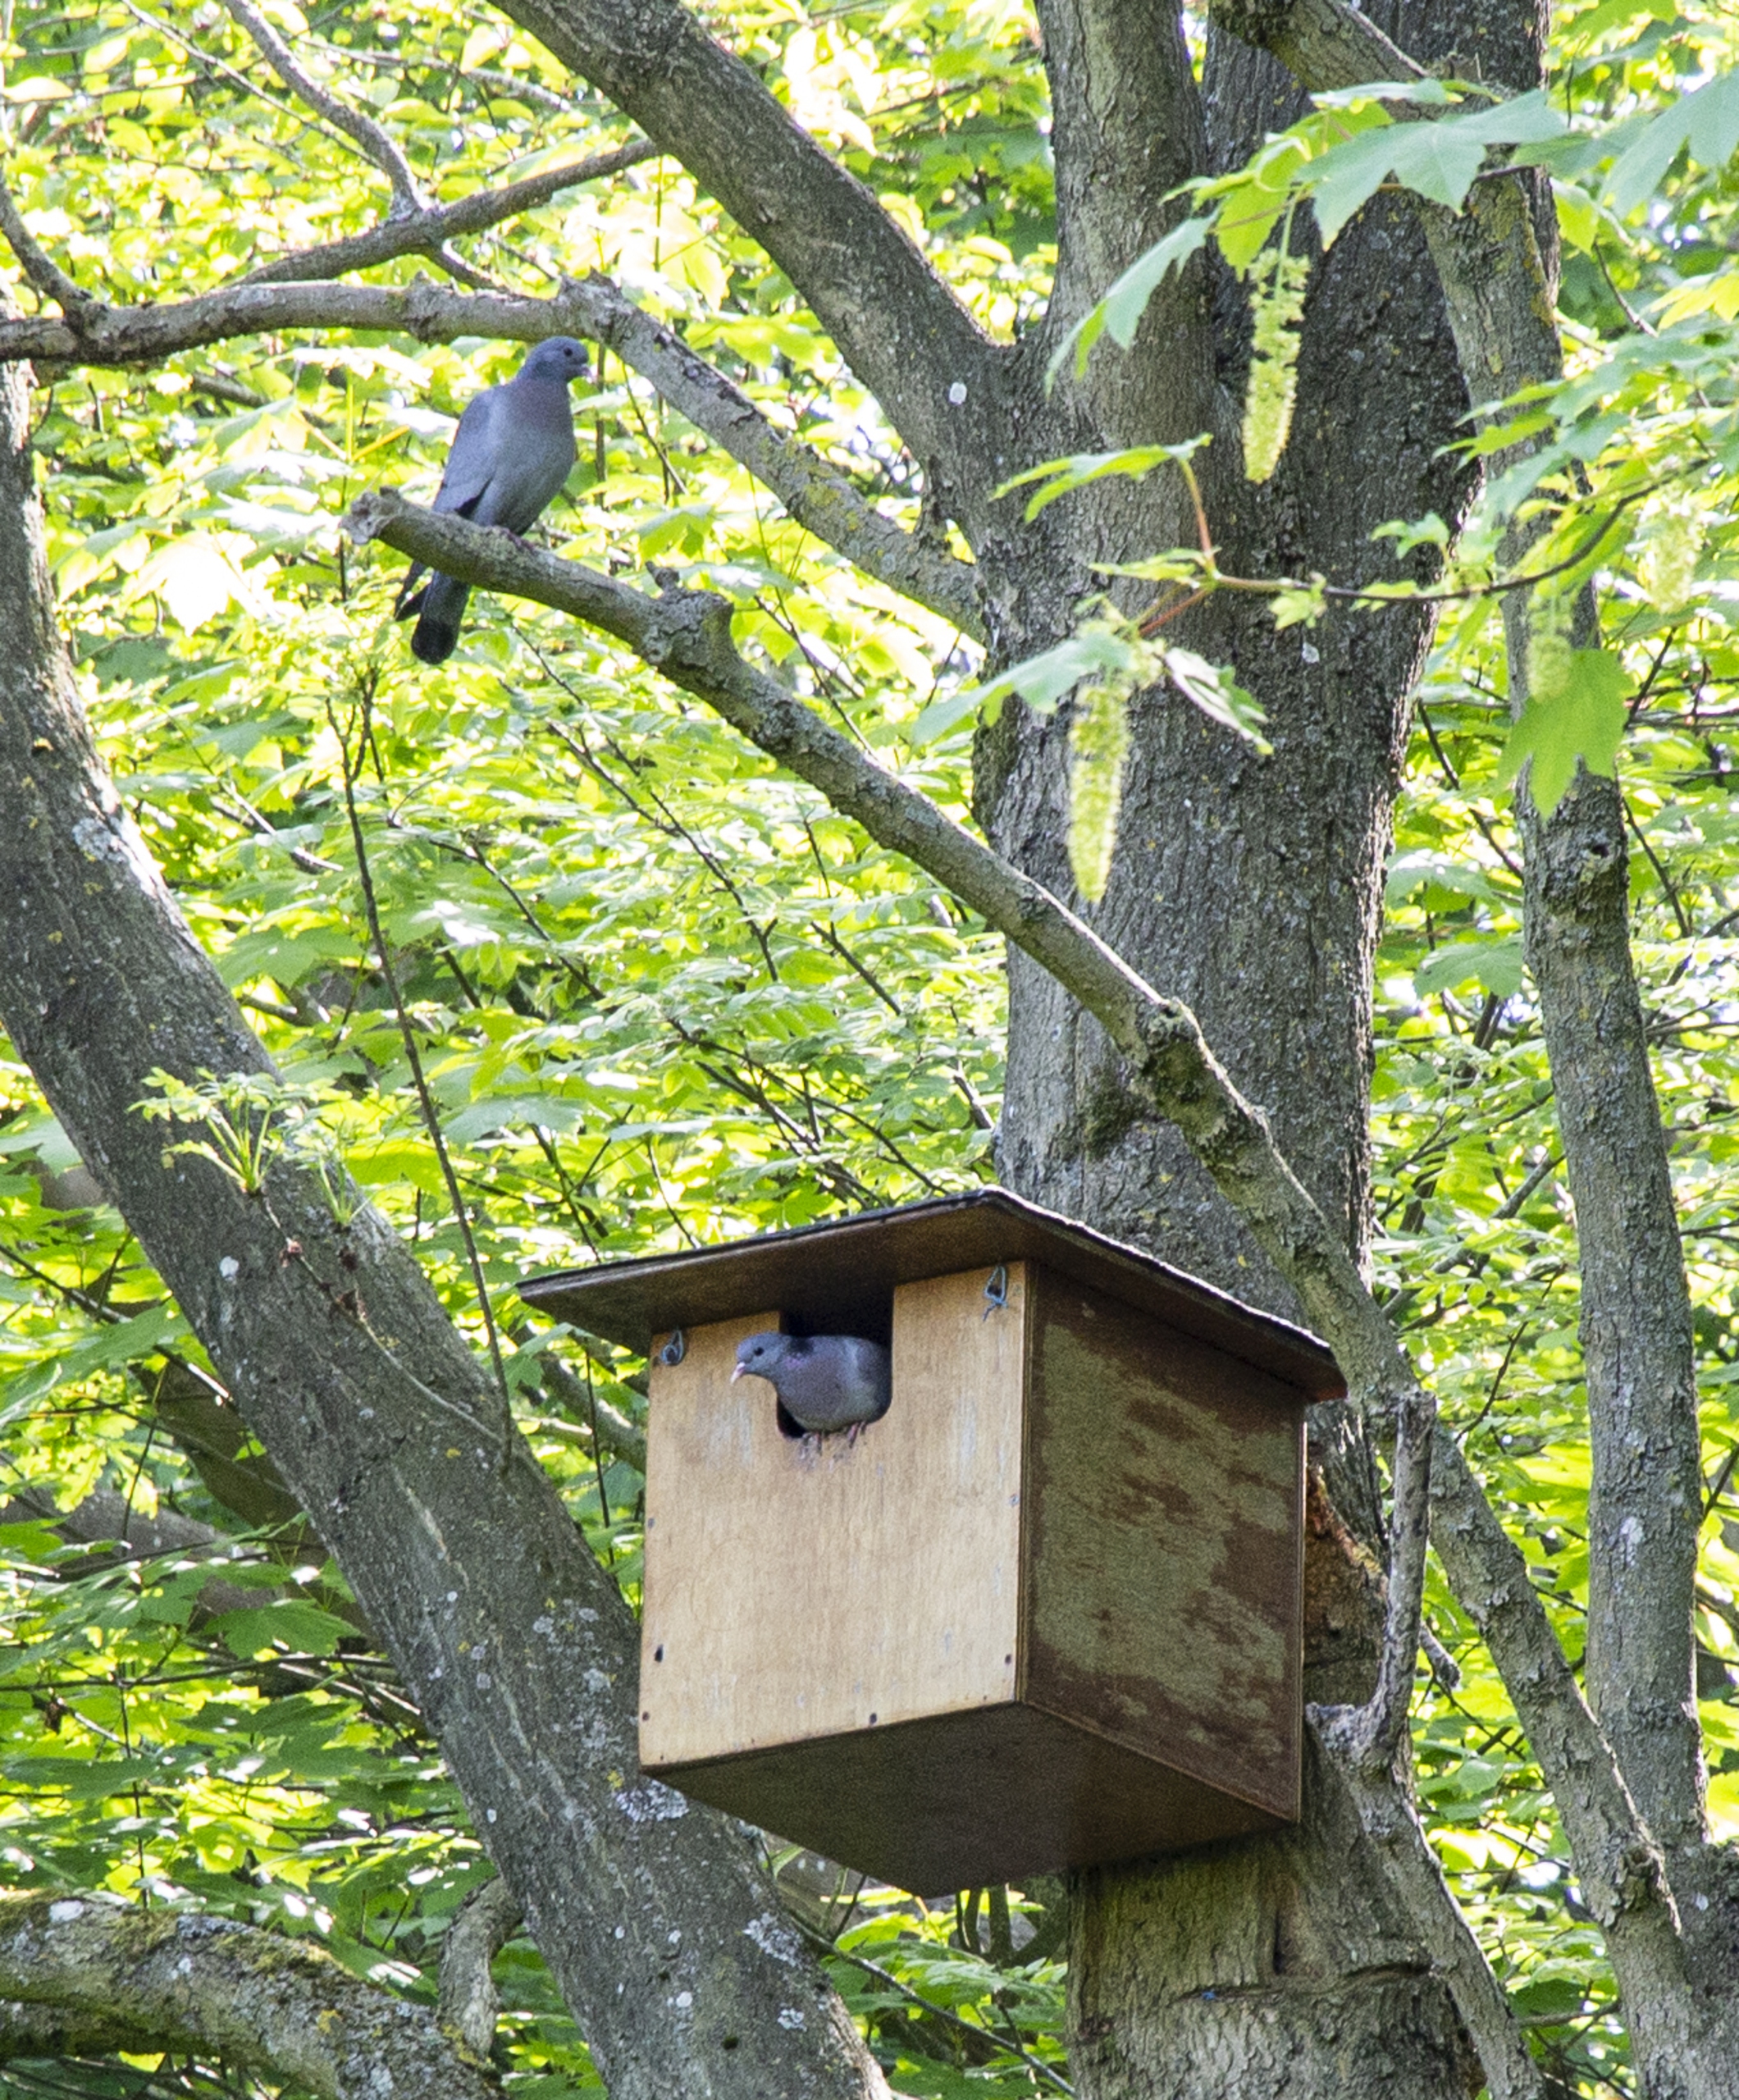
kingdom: Animalia
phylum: Chordata
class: Aves
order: Columbiformes
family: Columbidae
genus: Columba
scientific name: Columba oenas
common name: Huldue
